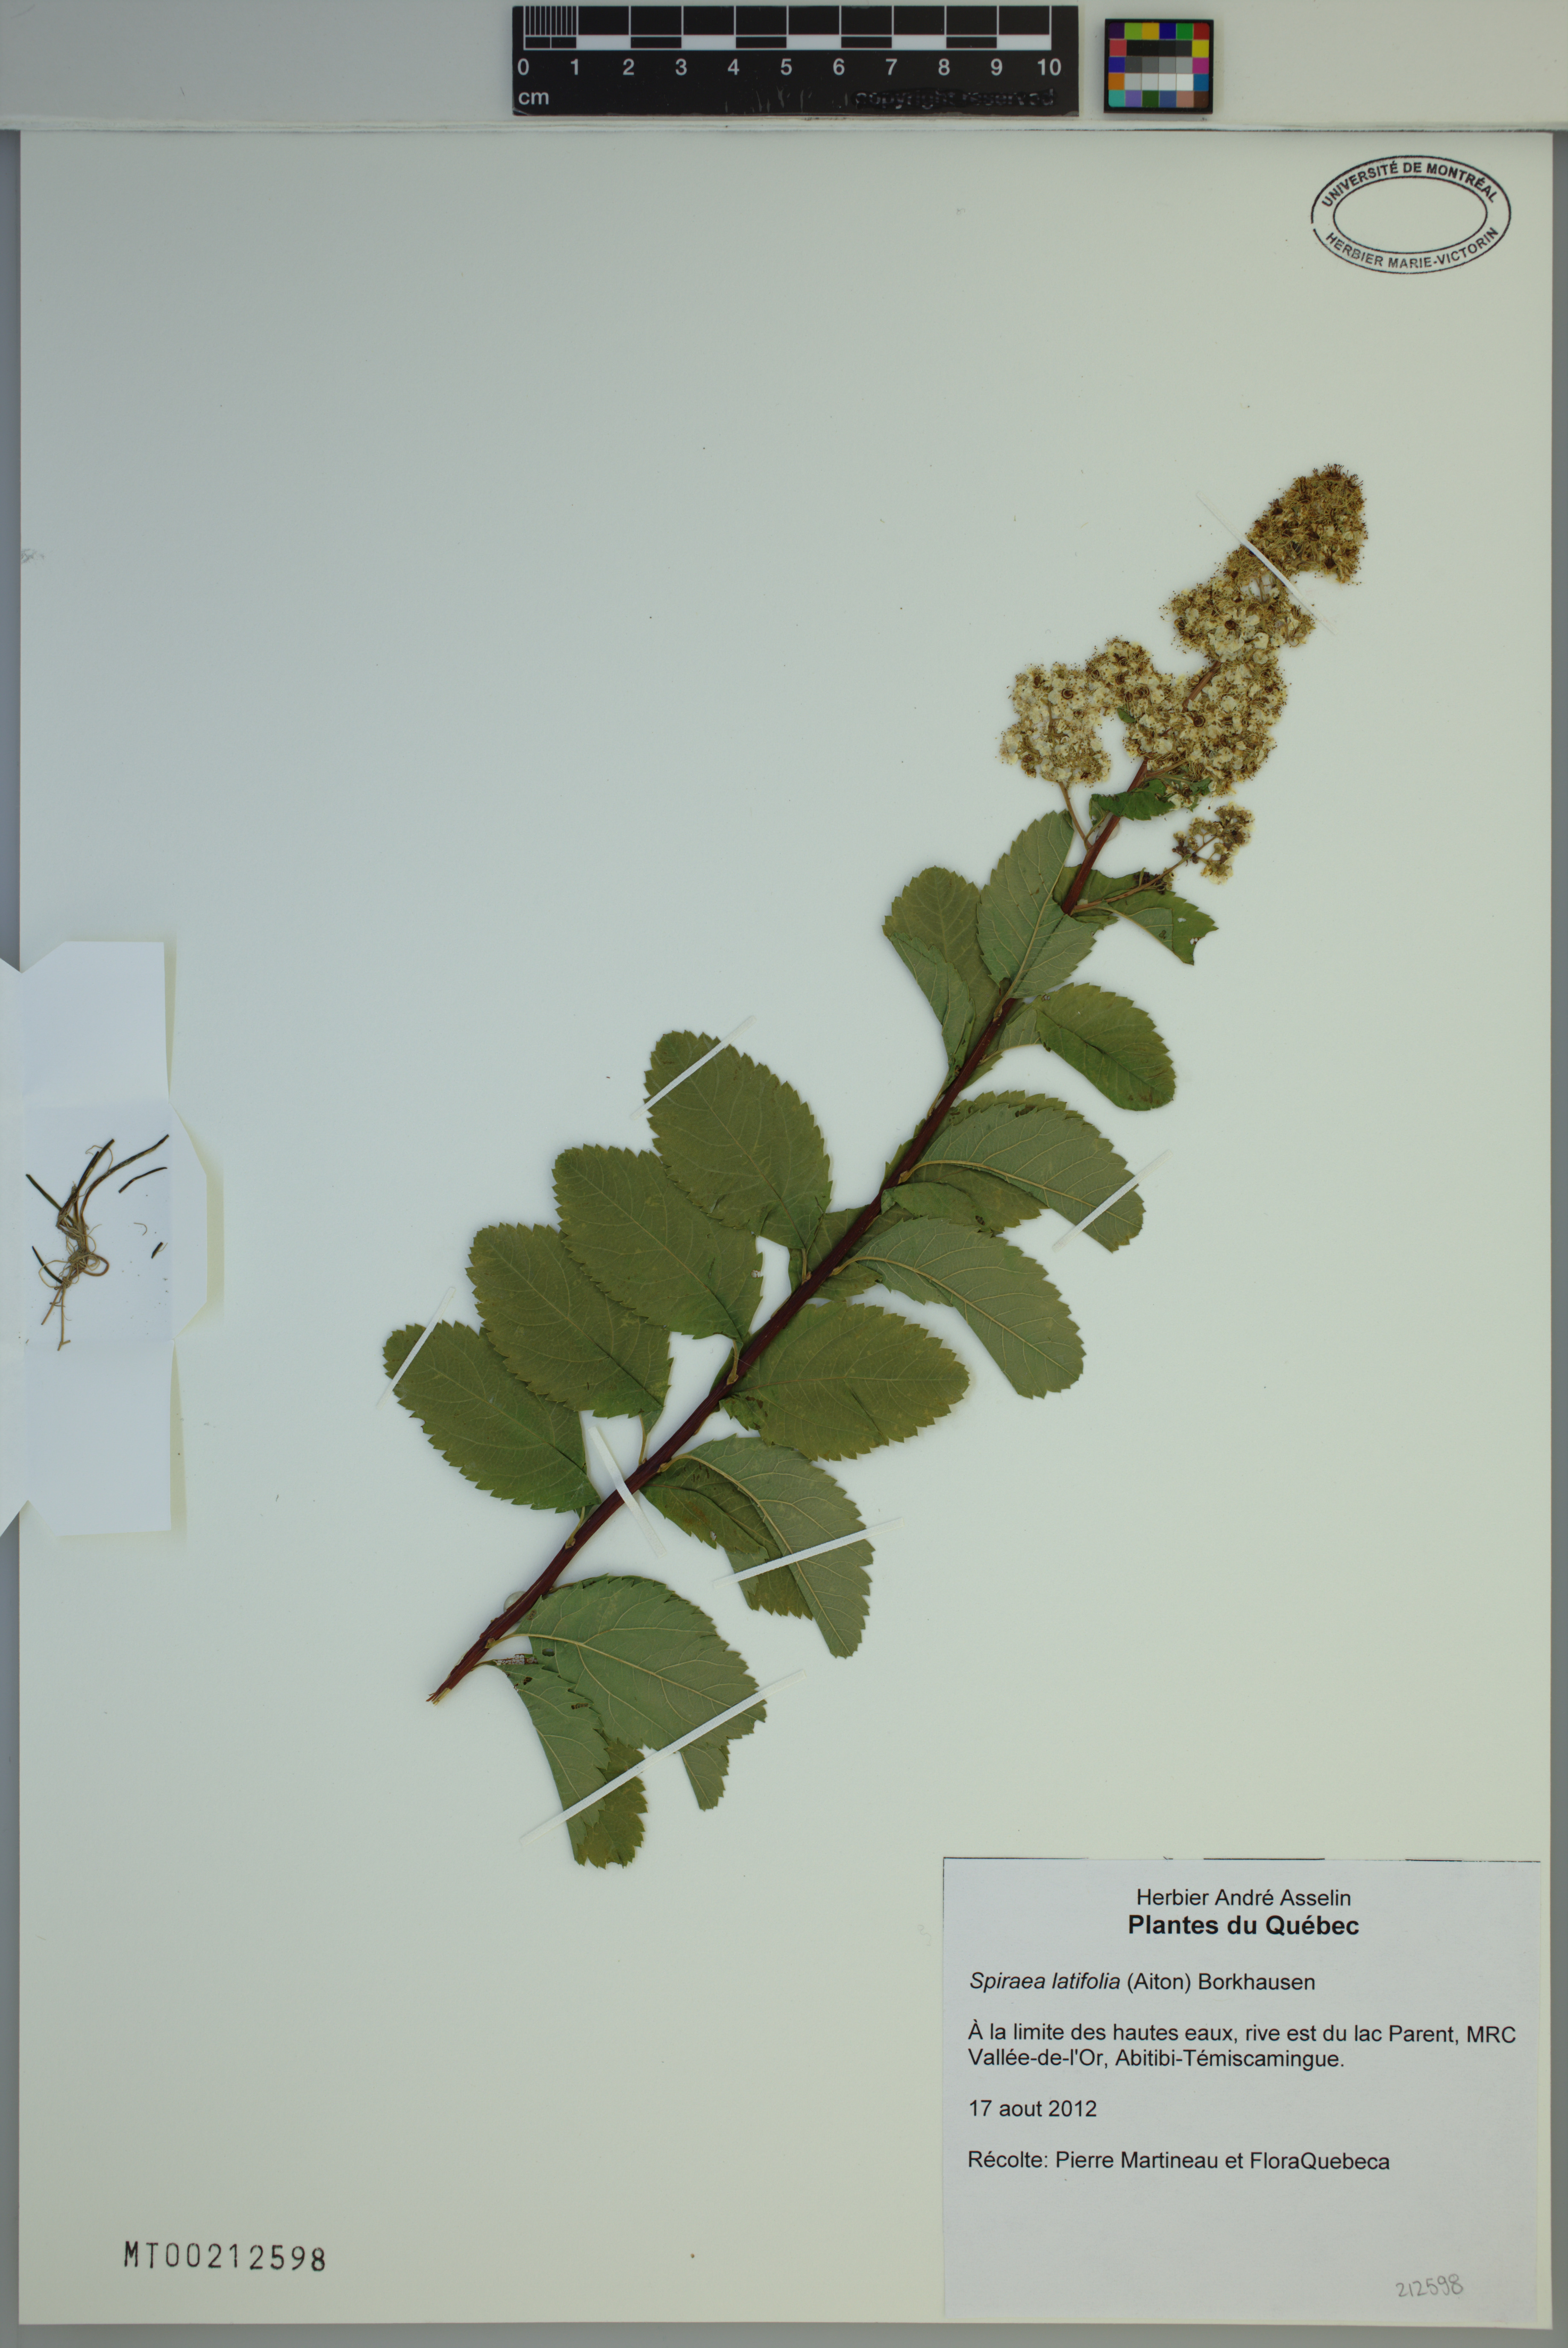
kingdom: Plantae
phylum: Tracheophyta
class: Magnoliopsida
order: Rosales
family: Rosaceae
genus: Spiraea
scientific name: Spiraea alba
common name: Pale bridewort
